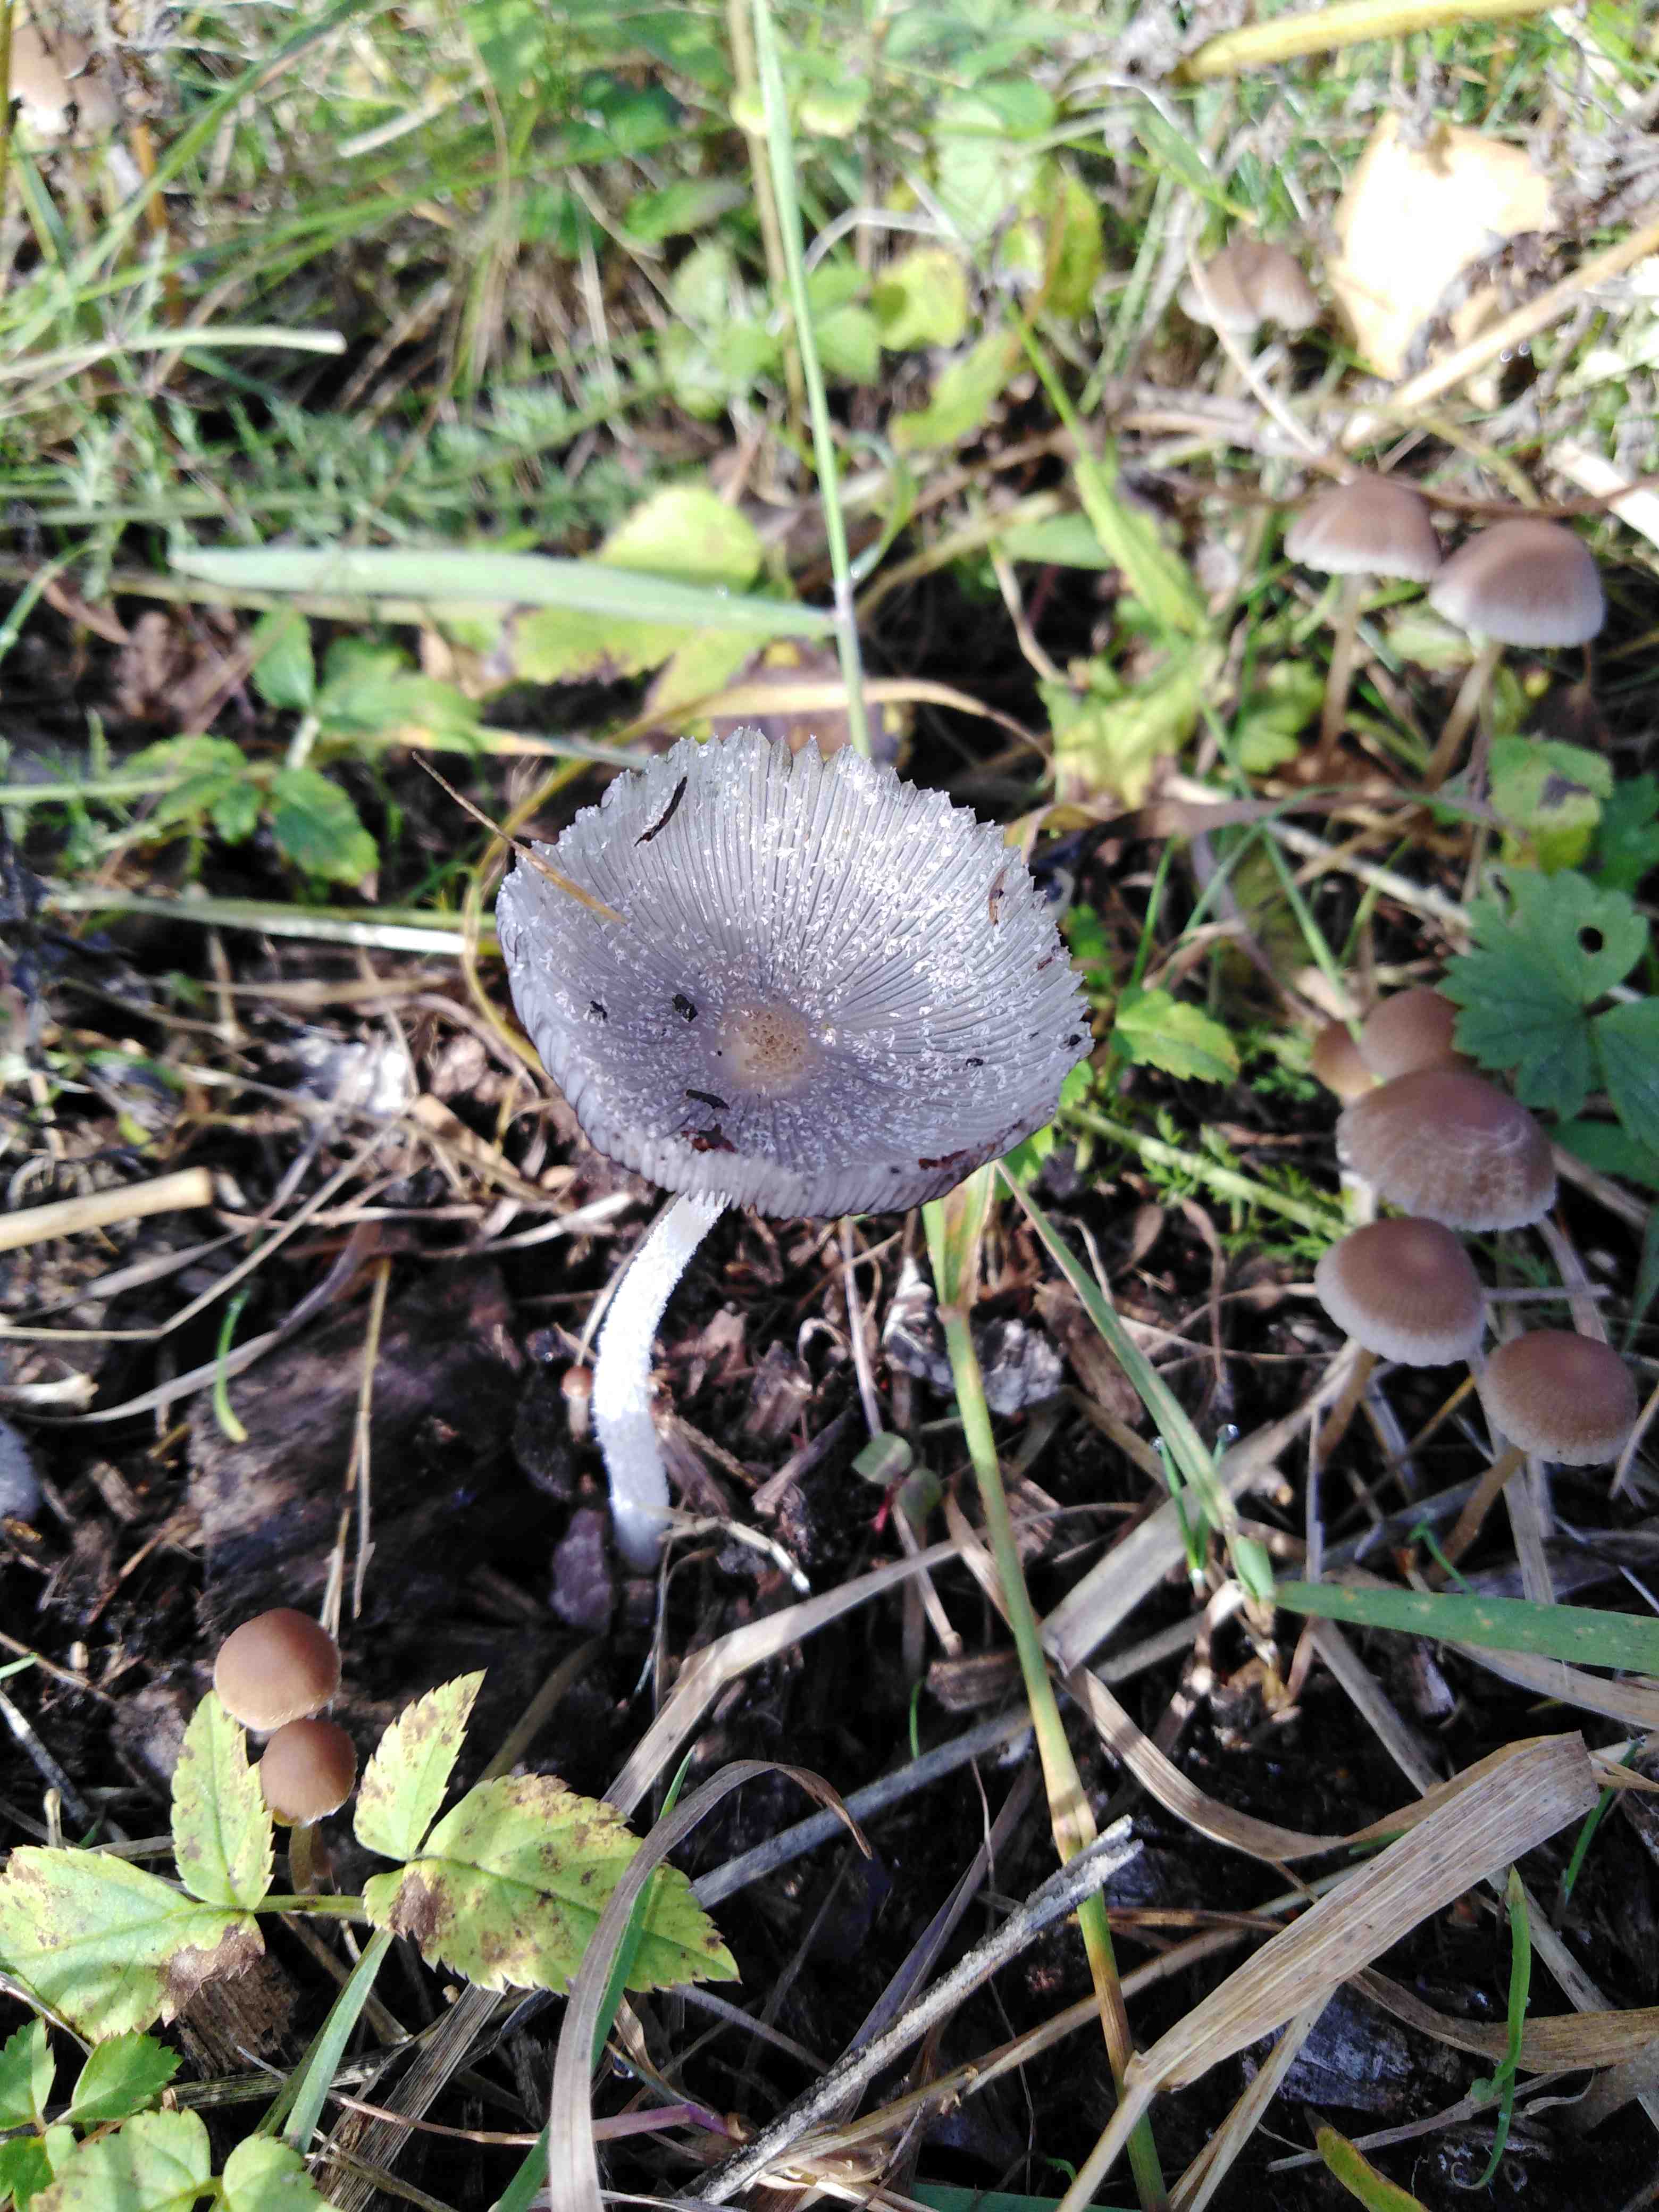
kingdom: Fungi
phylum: Basidiomycota
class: Agaricomycetes
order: Agaricales
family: Psathyrellaceae
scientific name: Psathyrellaceae
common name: mørkhatfamilien
